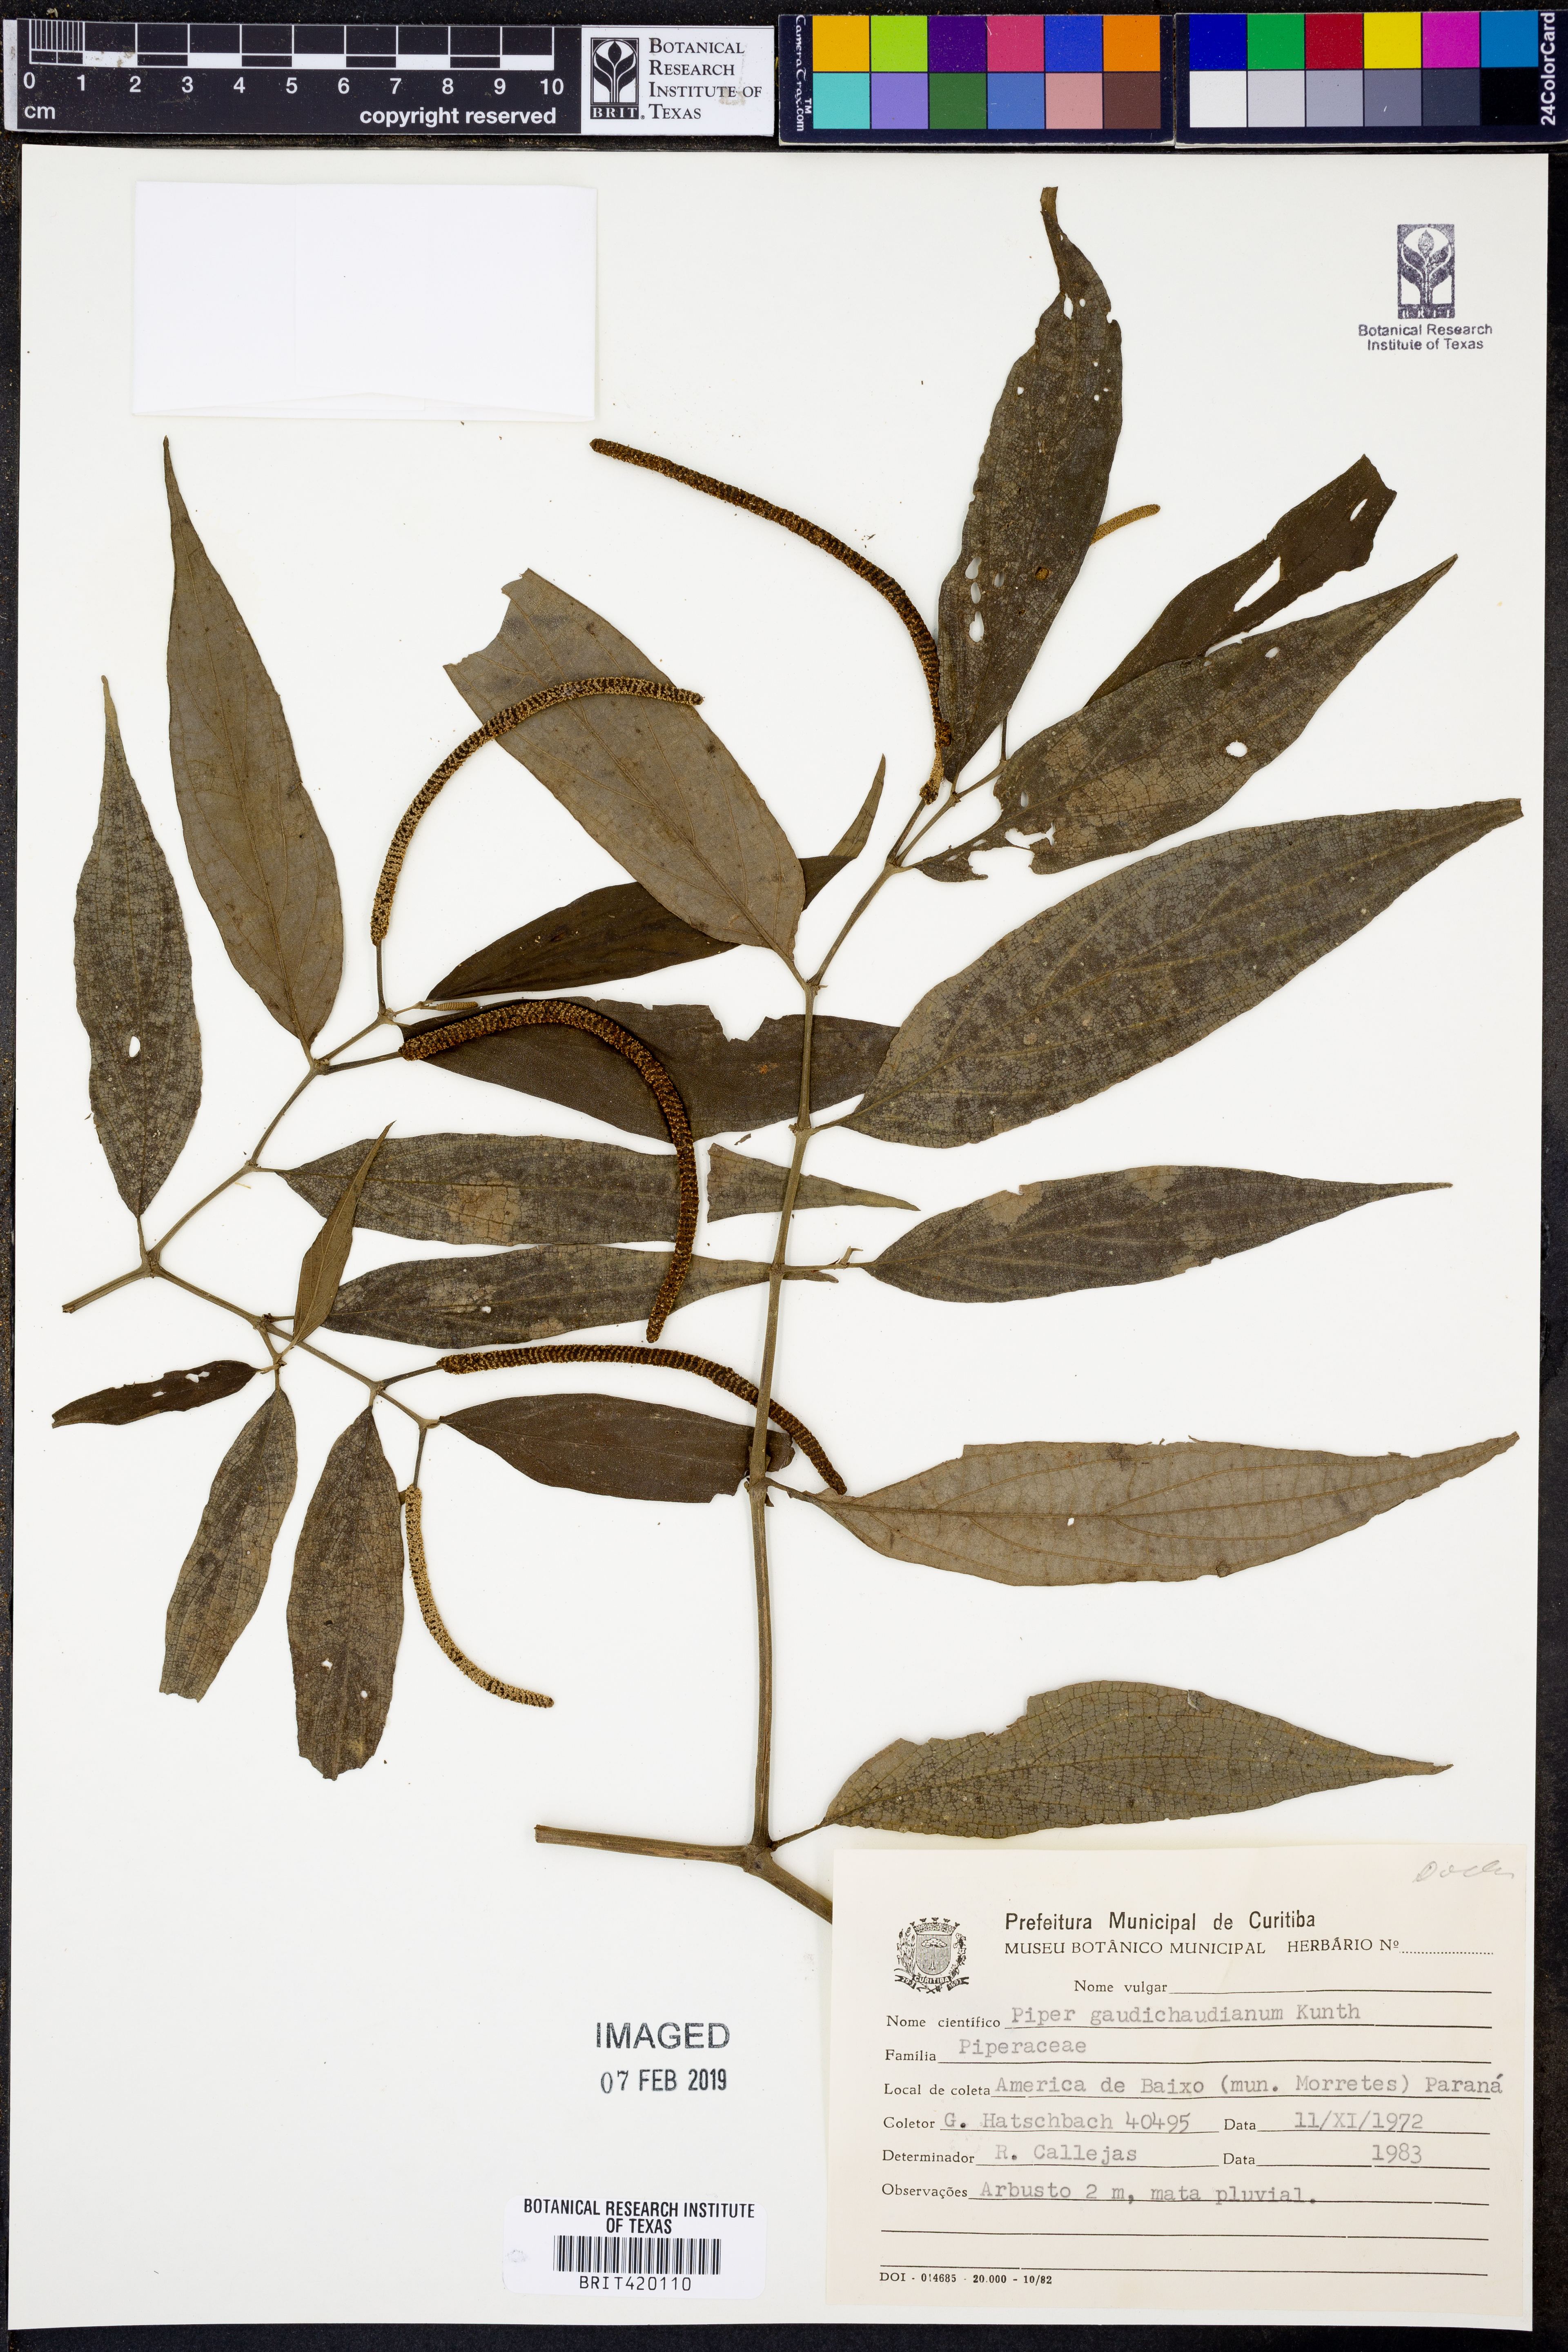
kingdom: Plantae
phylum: Tracheophyta
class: Magnoliopsida
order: Piperales
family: Piperaceae
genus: Piper
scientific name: Piper gaudichaudianum
